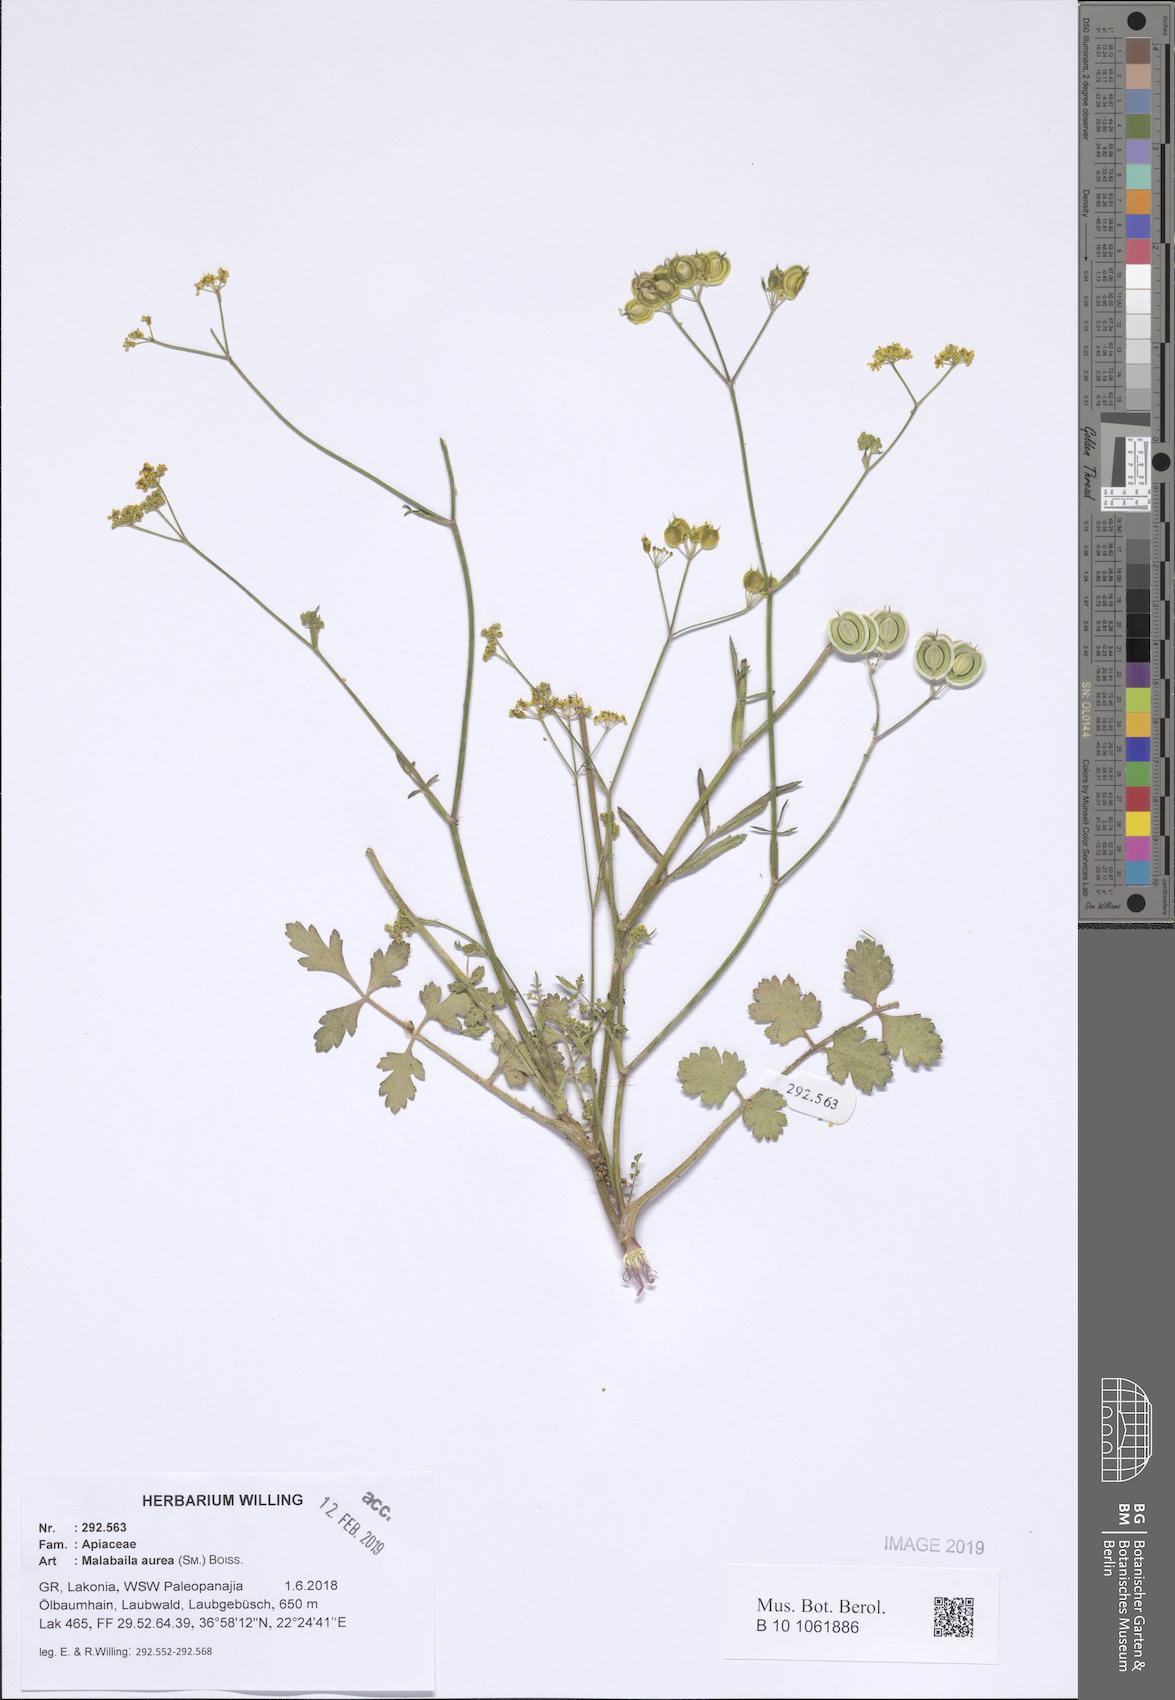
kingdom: Plantae
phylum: Tracheophyta
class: Magnoliopsida
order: Apiales
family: Apiaceae
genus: Leiotulus
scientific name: Leiotulus aureus
